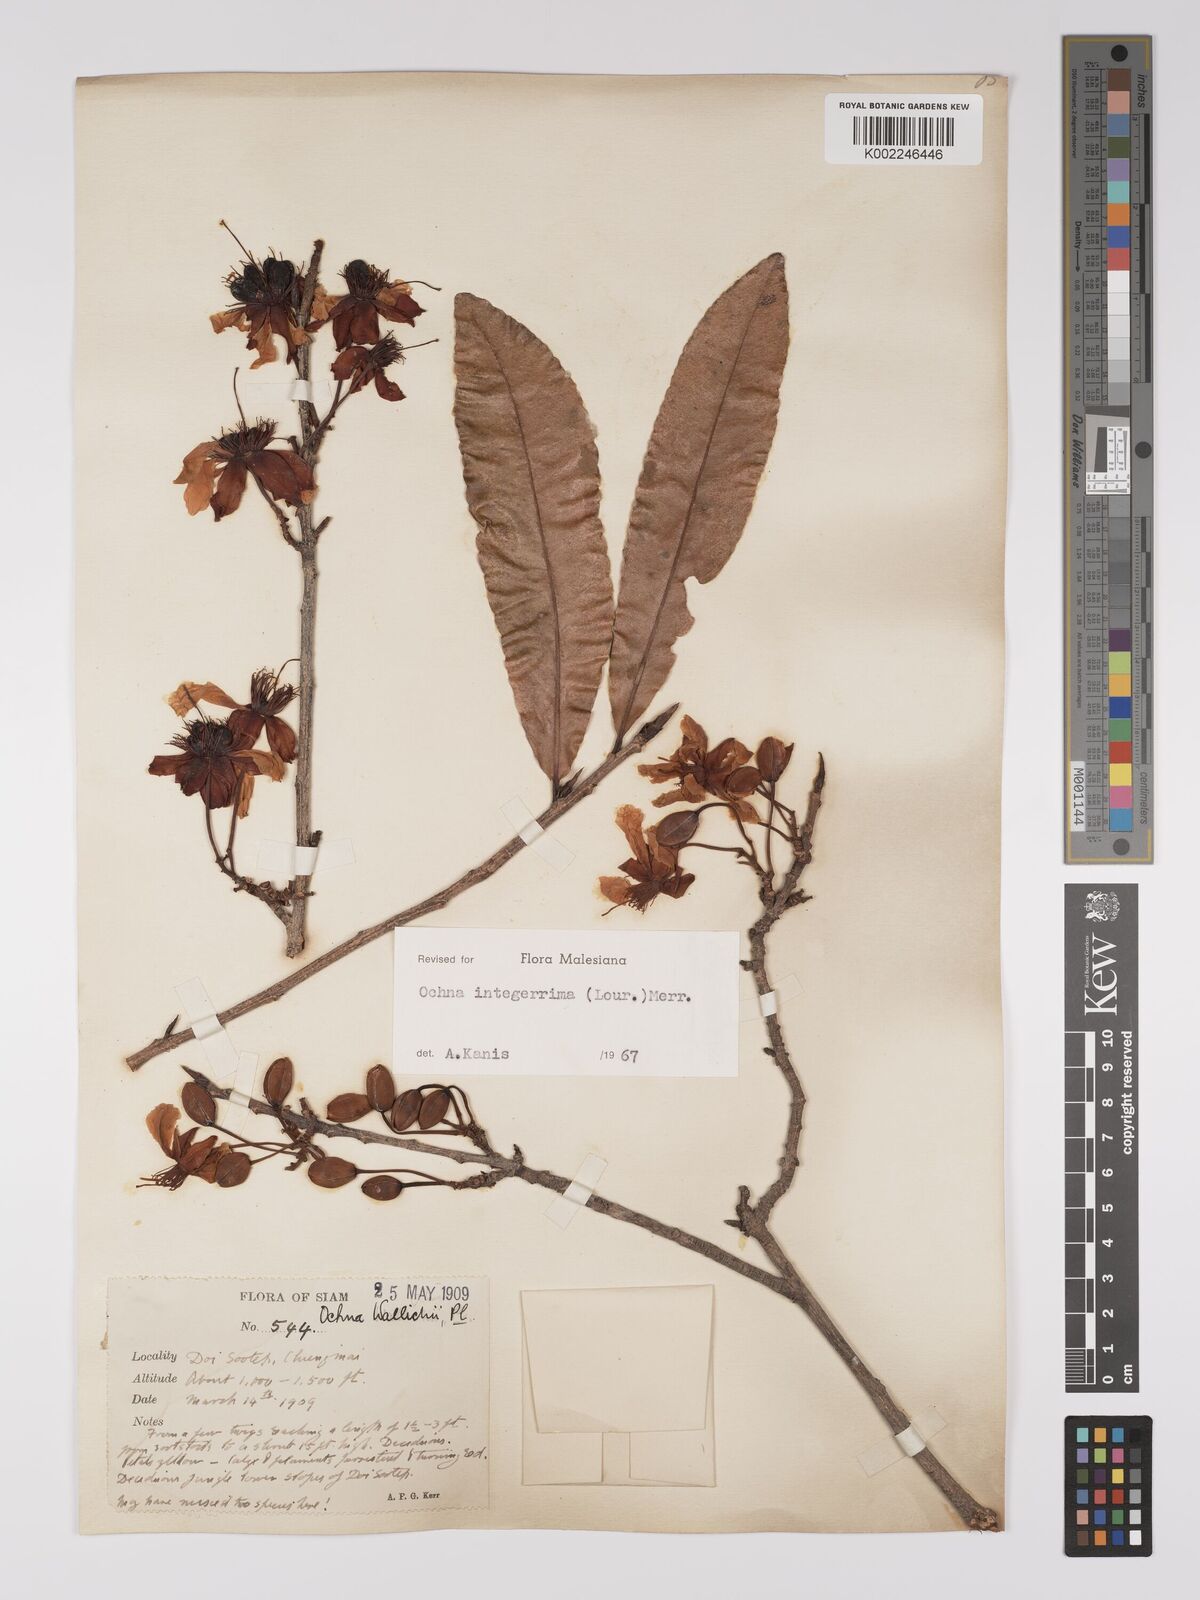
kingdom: Plantae
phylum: Tracheophyta
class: Magnoliopsida
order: Malpighiales
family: Ochnaceae
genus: Ochna
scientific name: Ochna integerrima
